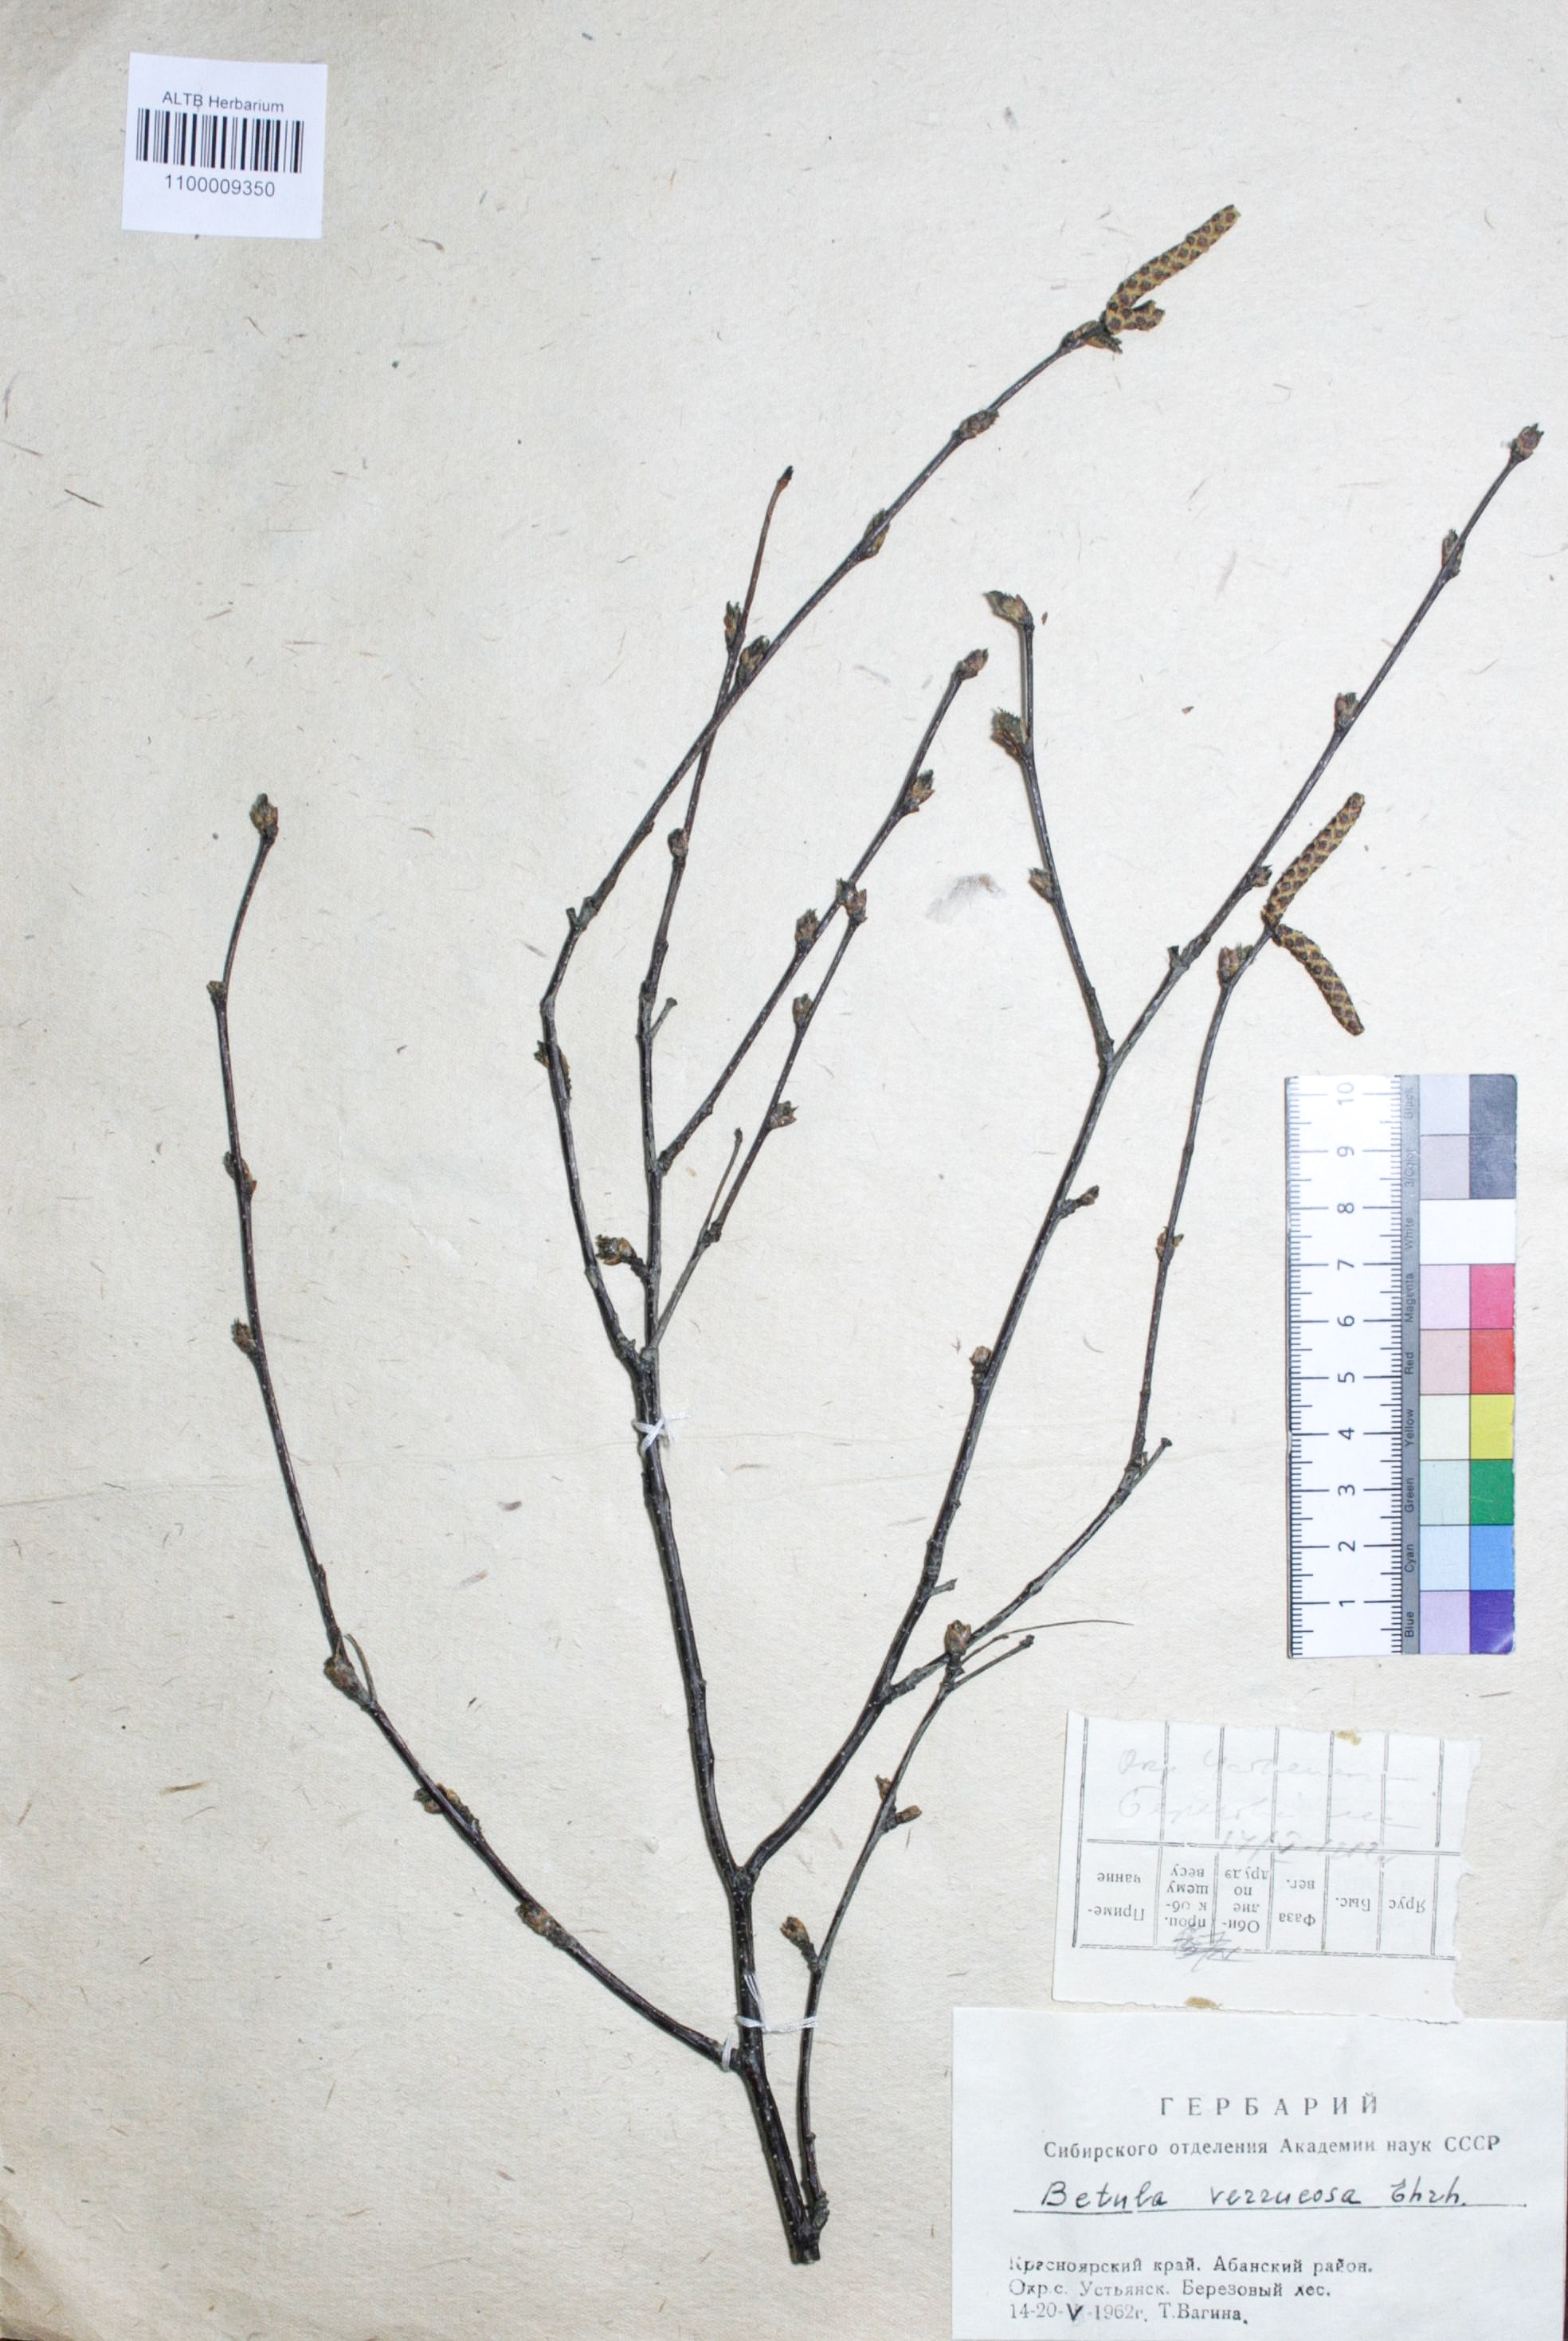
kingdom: Plantae
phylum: Tracheophyta
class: Magnoliopsida
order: Fagales
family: Betulaceae
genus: Betula
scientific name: Betula pendula
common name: Silver birch
